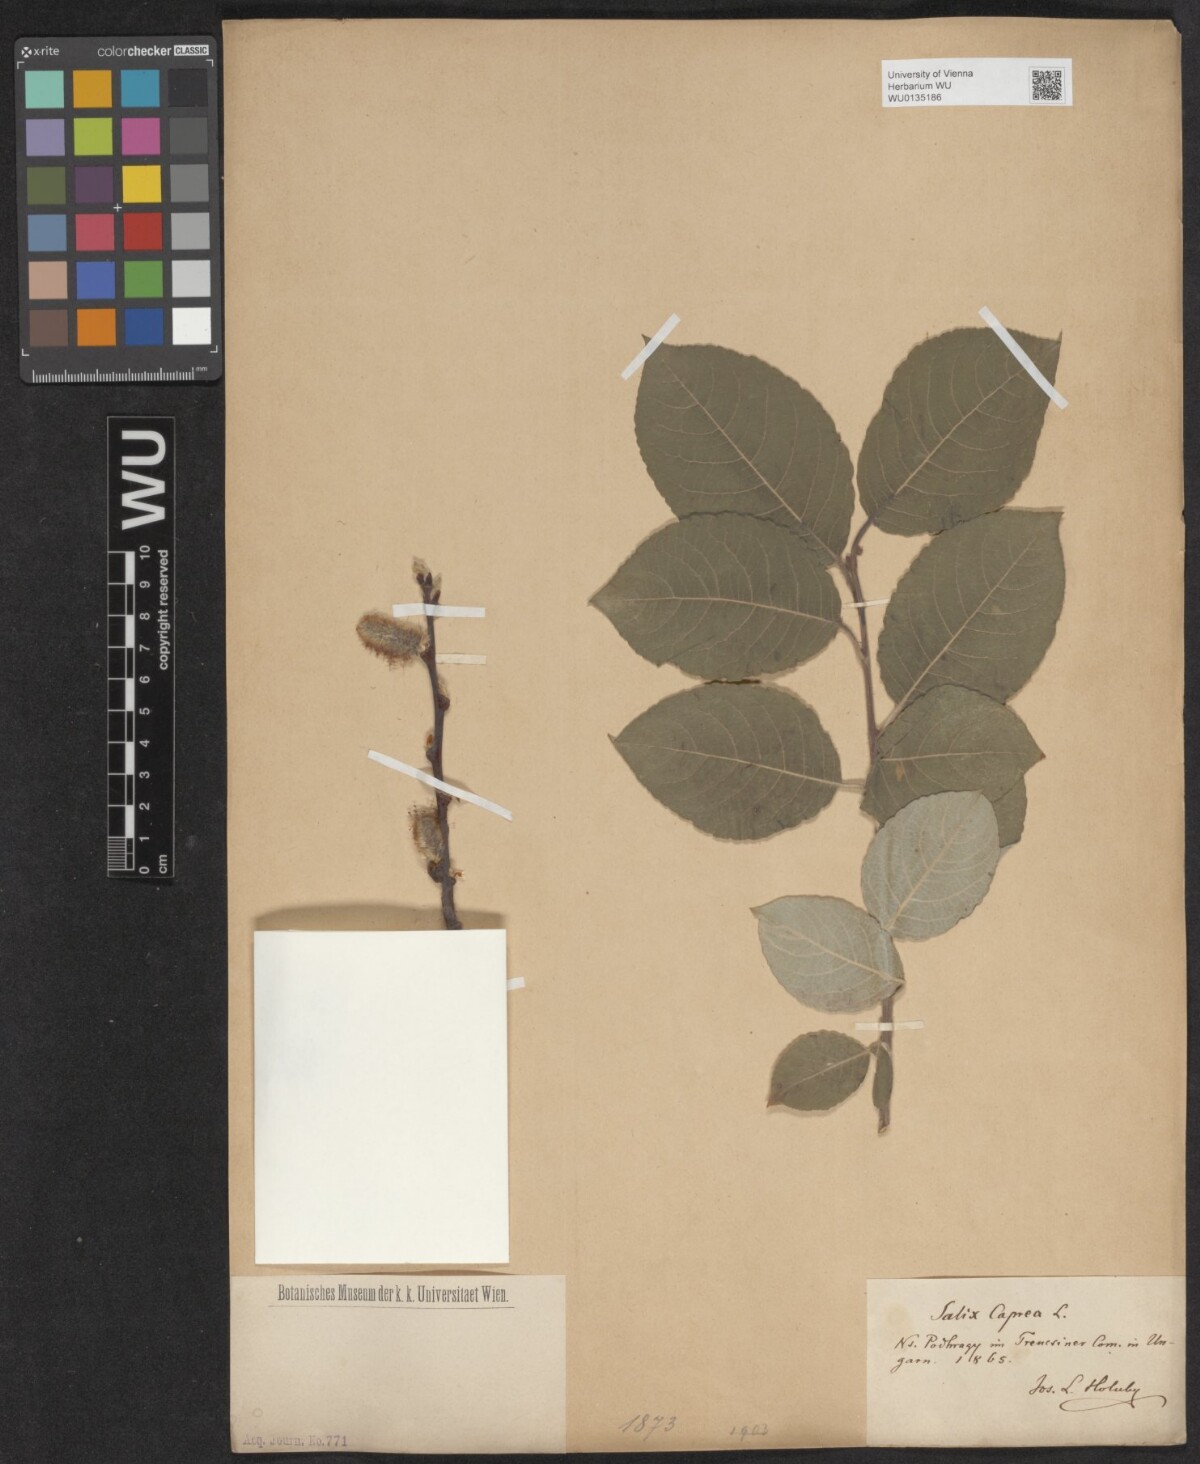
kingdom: Plantae
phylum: Tracheophyta
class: Magnoliopsida
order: Malpighiales
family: Salicaceae
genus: Salix
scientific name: Salix caprea
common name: Goat willow
